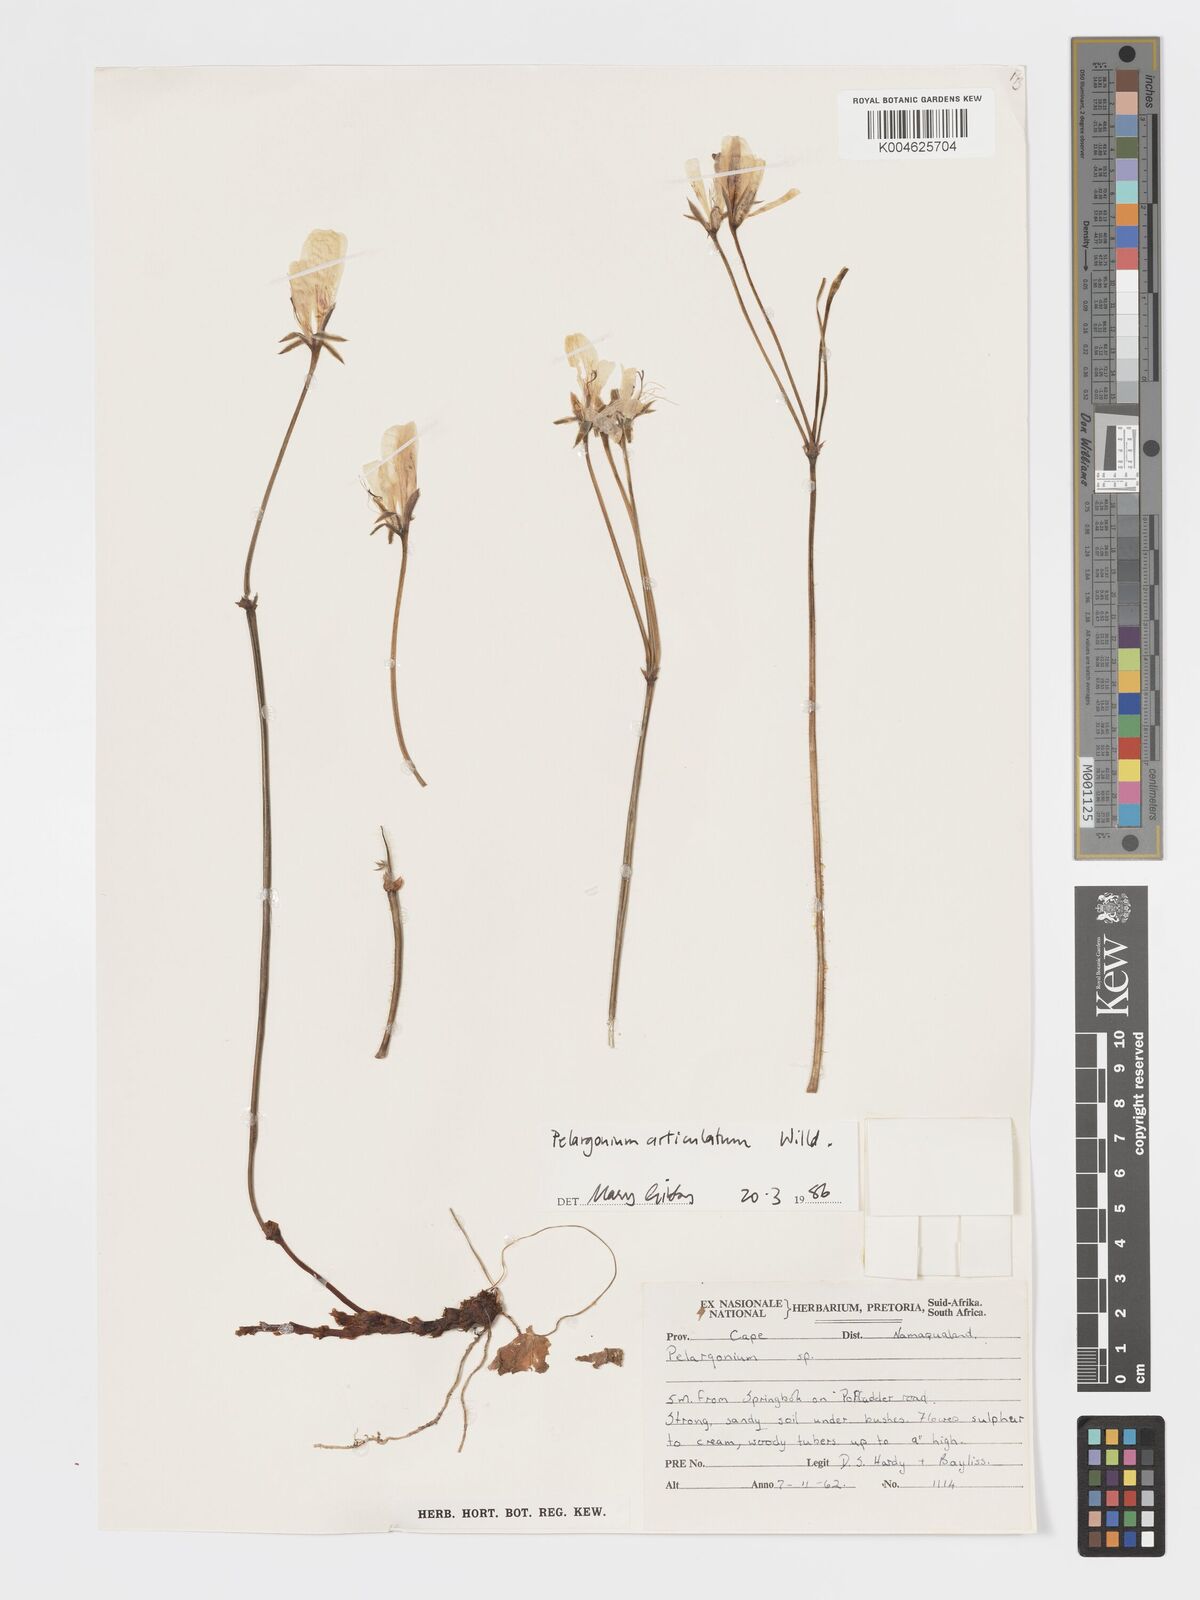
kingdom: Plantae
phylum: Tracheophyta
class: Magnoliopsida
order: Geraniales
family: Geraniaceae
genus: Pelargonium
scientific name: Pelargonium
